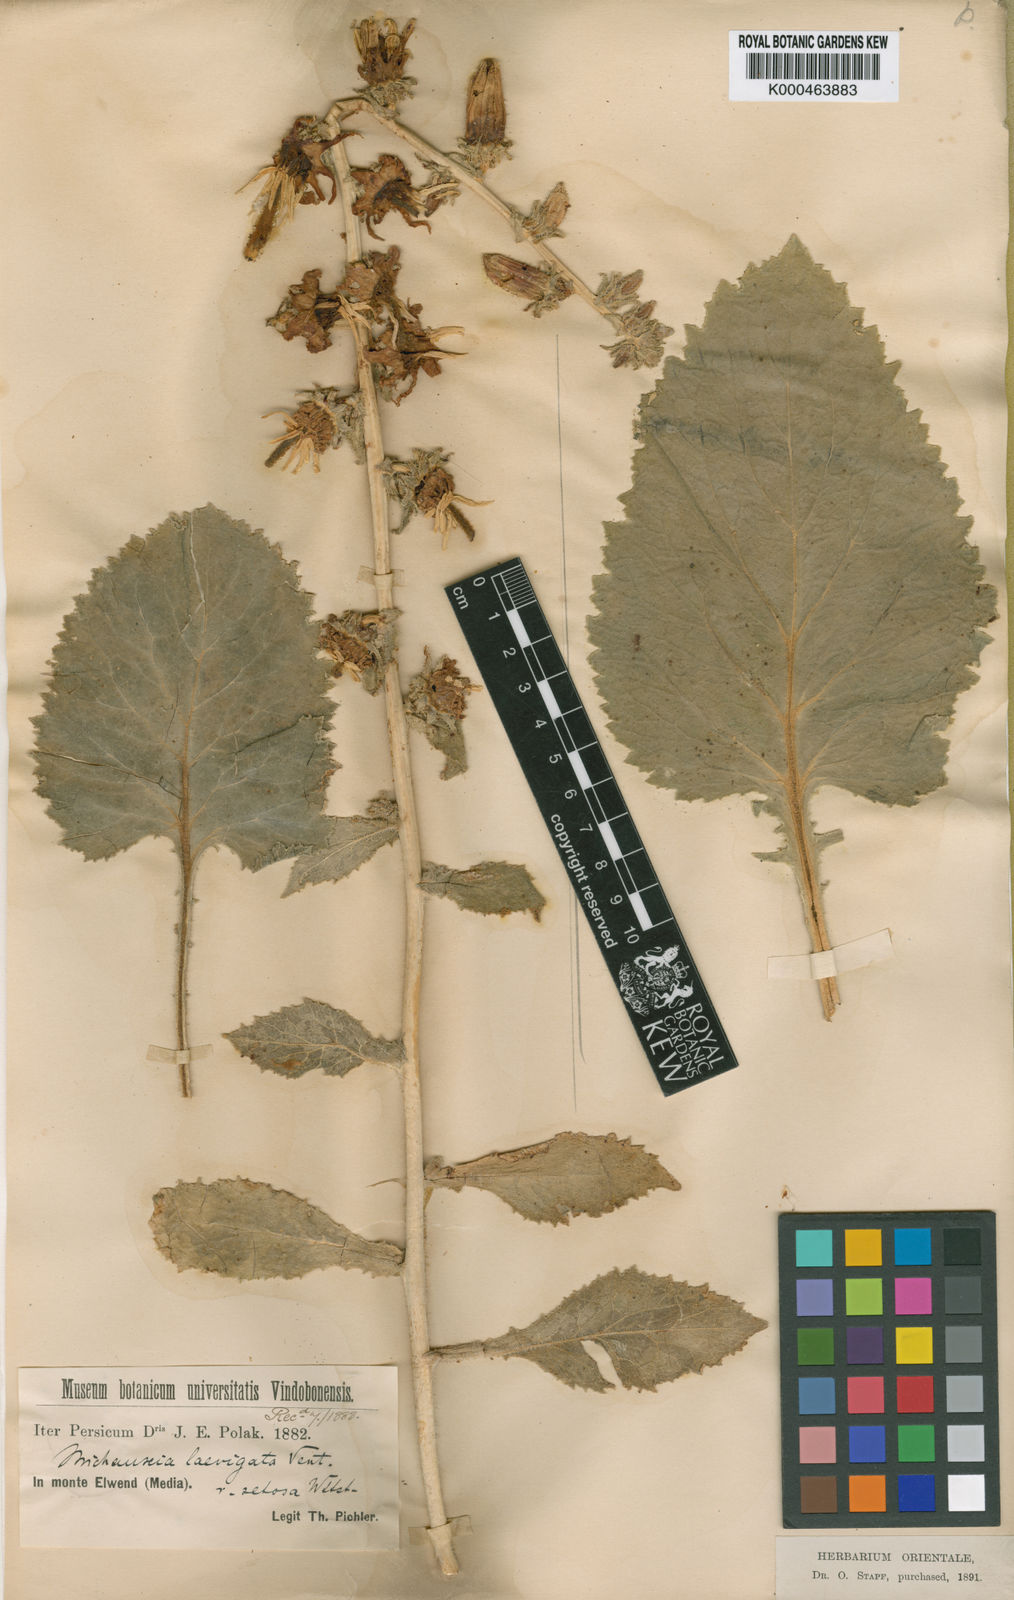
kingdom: Plantae
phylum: Tracheophyta
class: Magnoliopsida
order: Asterales
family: Campanulaceae
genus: Michauxia
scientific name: Michauxia laevigata
